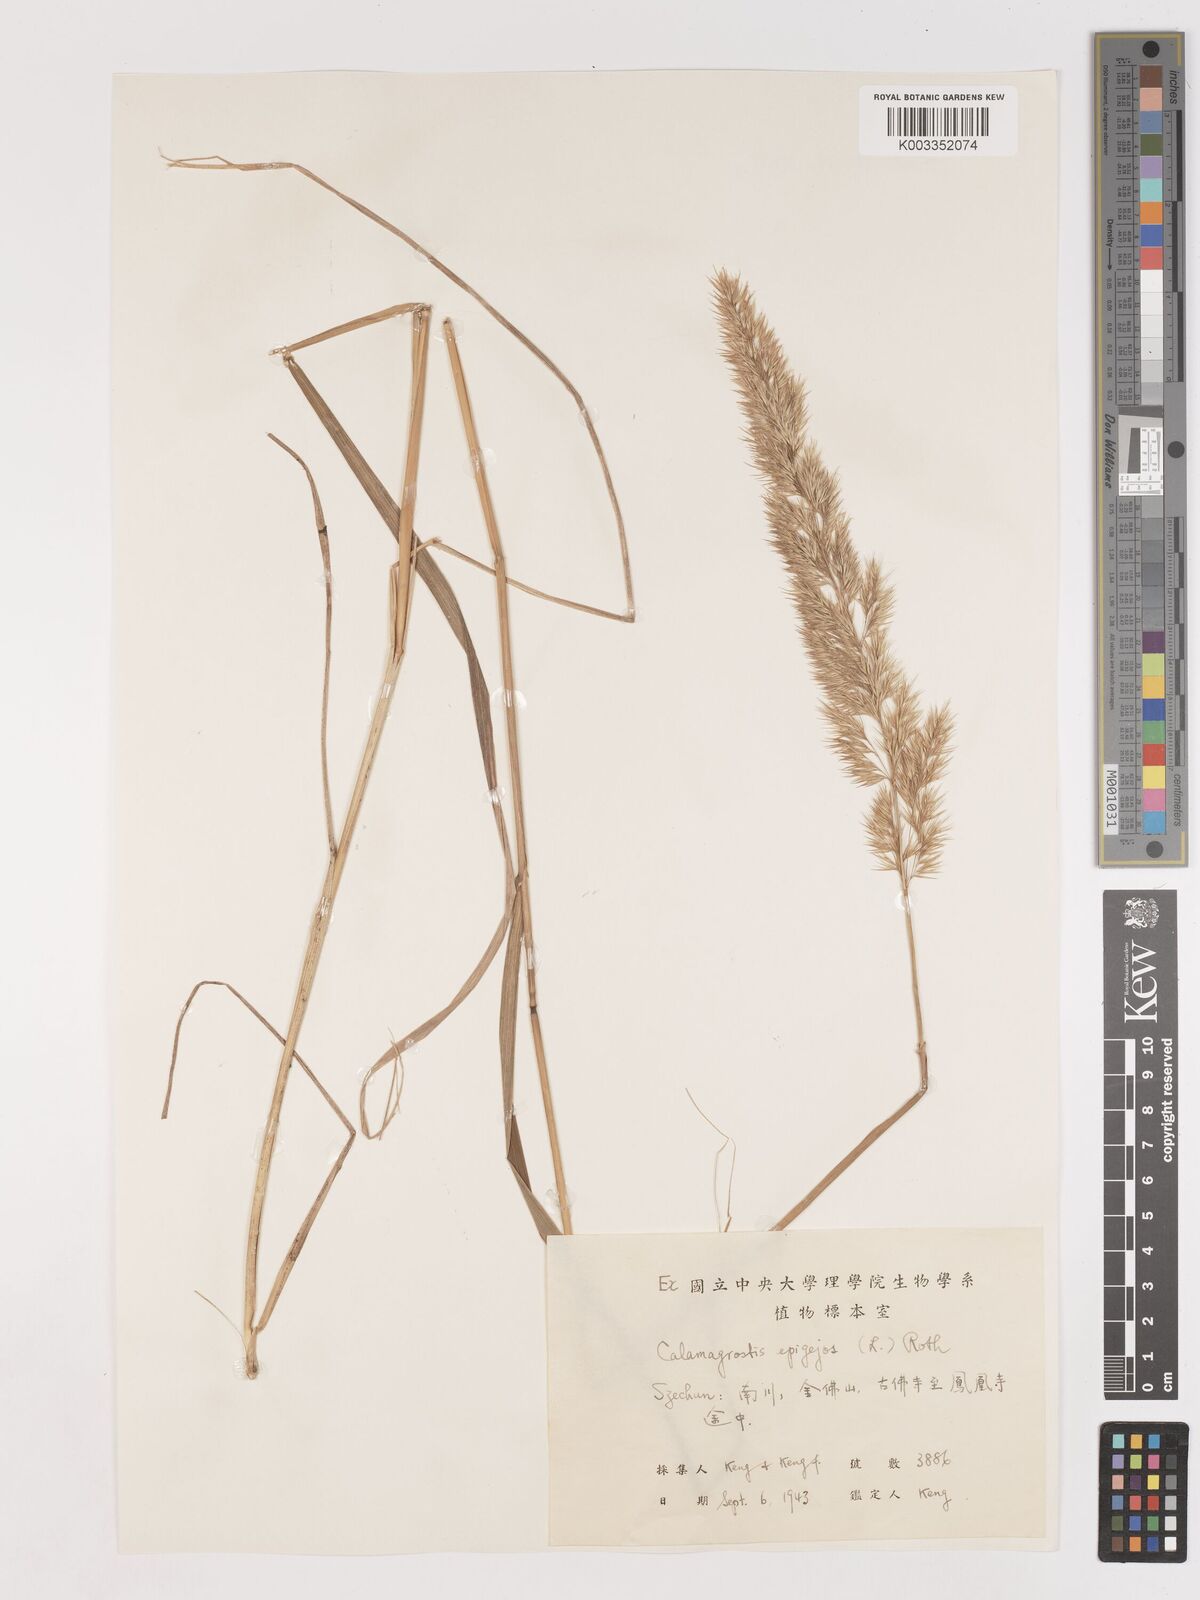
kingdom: Plantae
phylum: Tracheophyta
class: Liliopsida
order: Poales
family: Poaceae
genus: Calamagrostis
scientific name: Calamagrostis epigejos
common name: Wood small-reed
